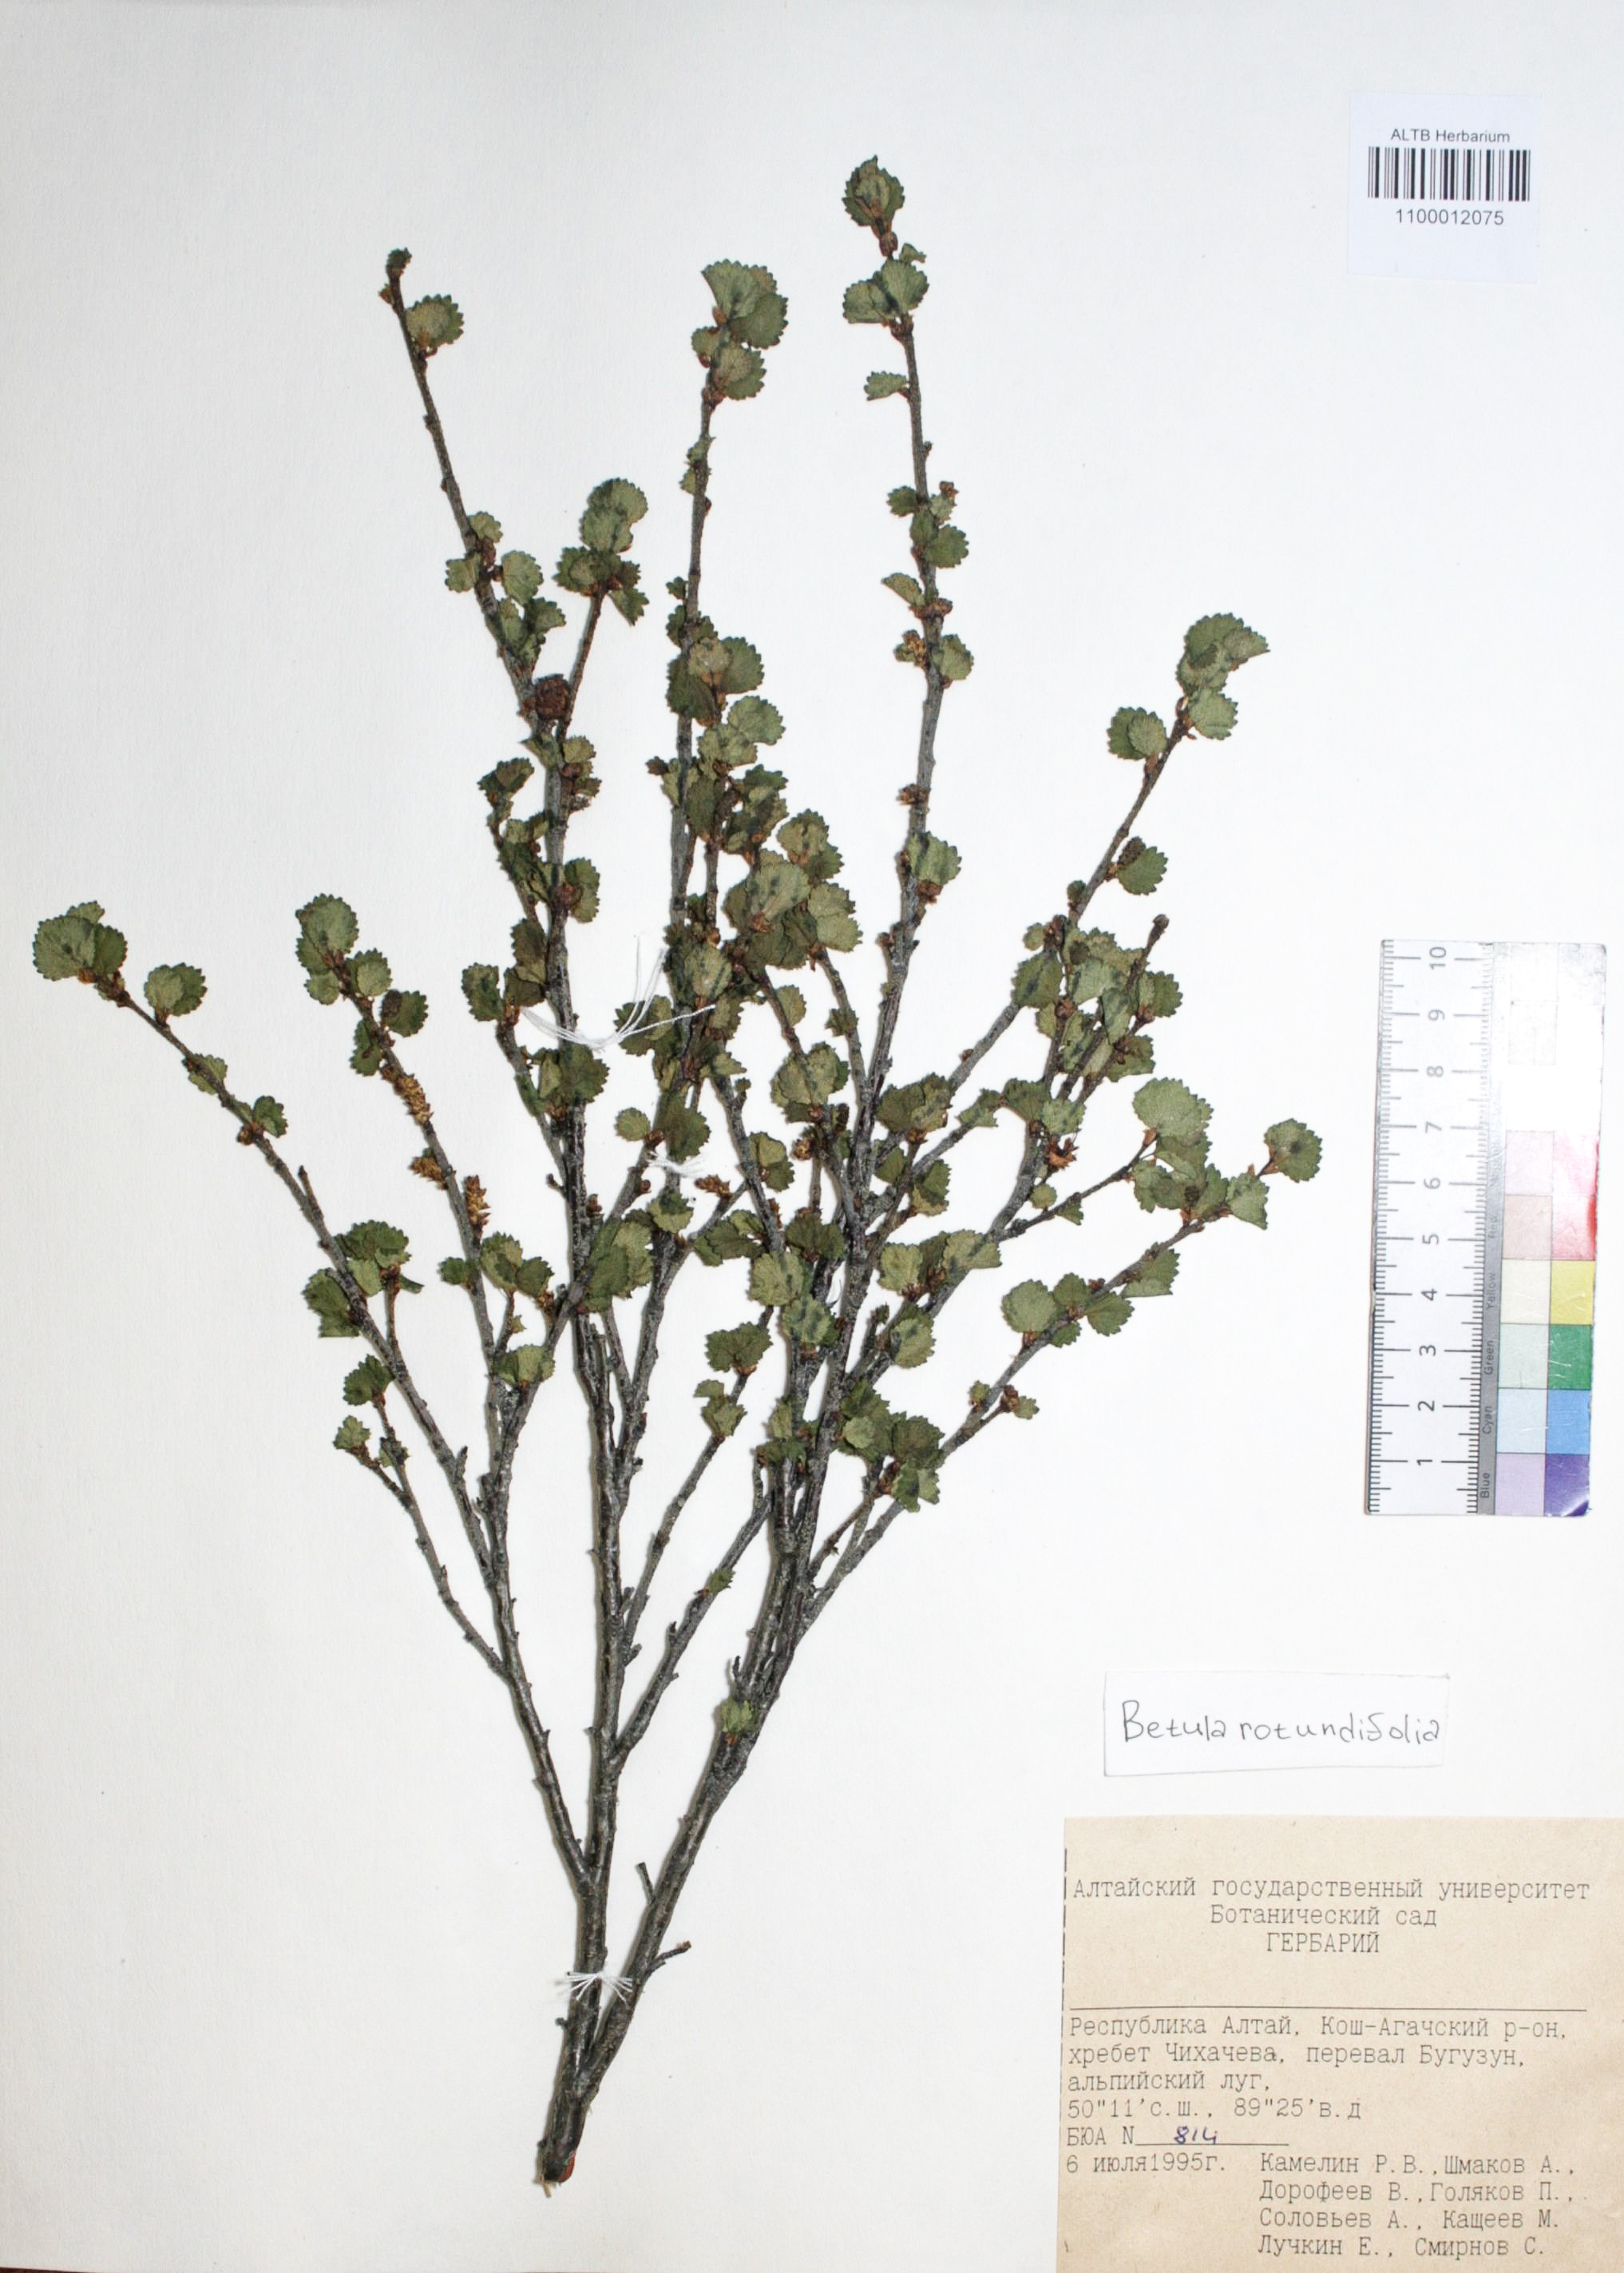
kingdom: Plantae
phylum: Tracheophyta
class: Magnoliopsida
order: Fagales
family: Betulaceae
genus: Betula
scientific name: Betula glandulosa
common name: Dwarf birch
